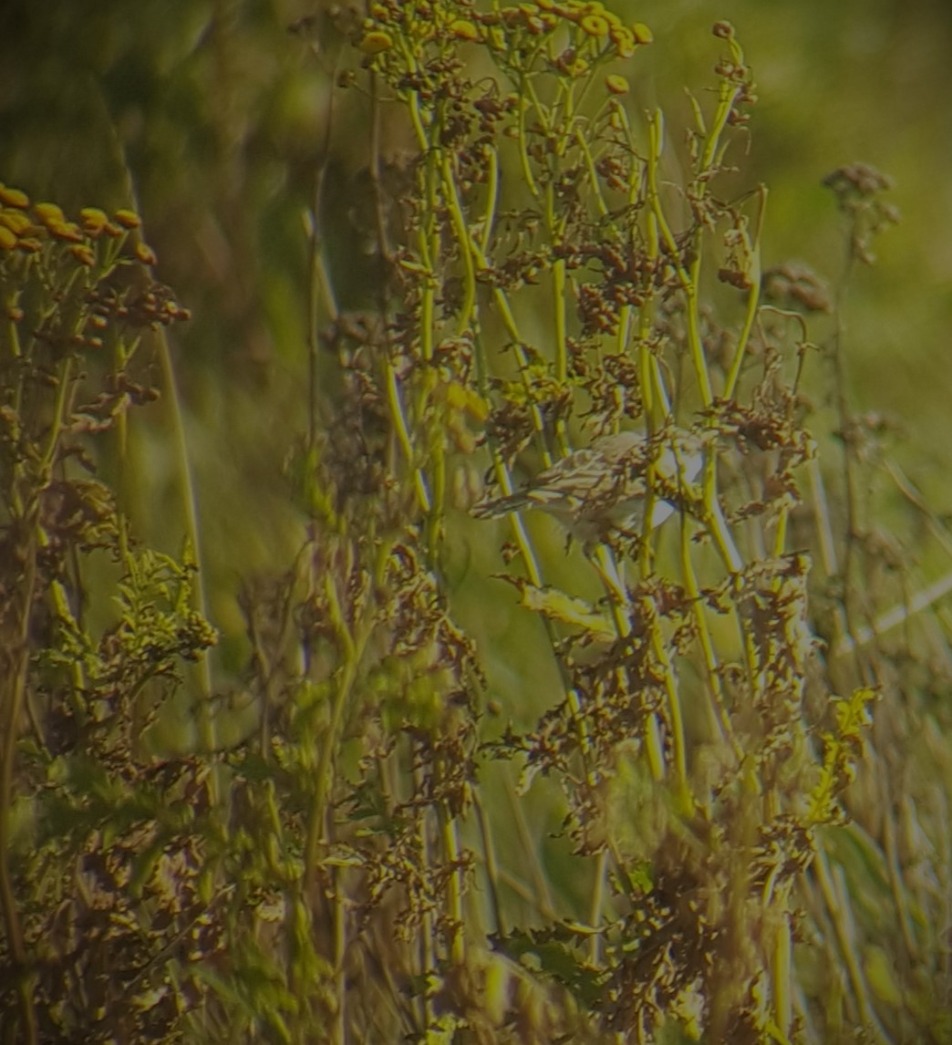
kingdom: Animalia
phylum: Chordata
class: Aves
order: Passeriformes
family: Acrocephalidae
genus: Iduna
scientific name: Iduna caligata
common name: Lille gulbug
